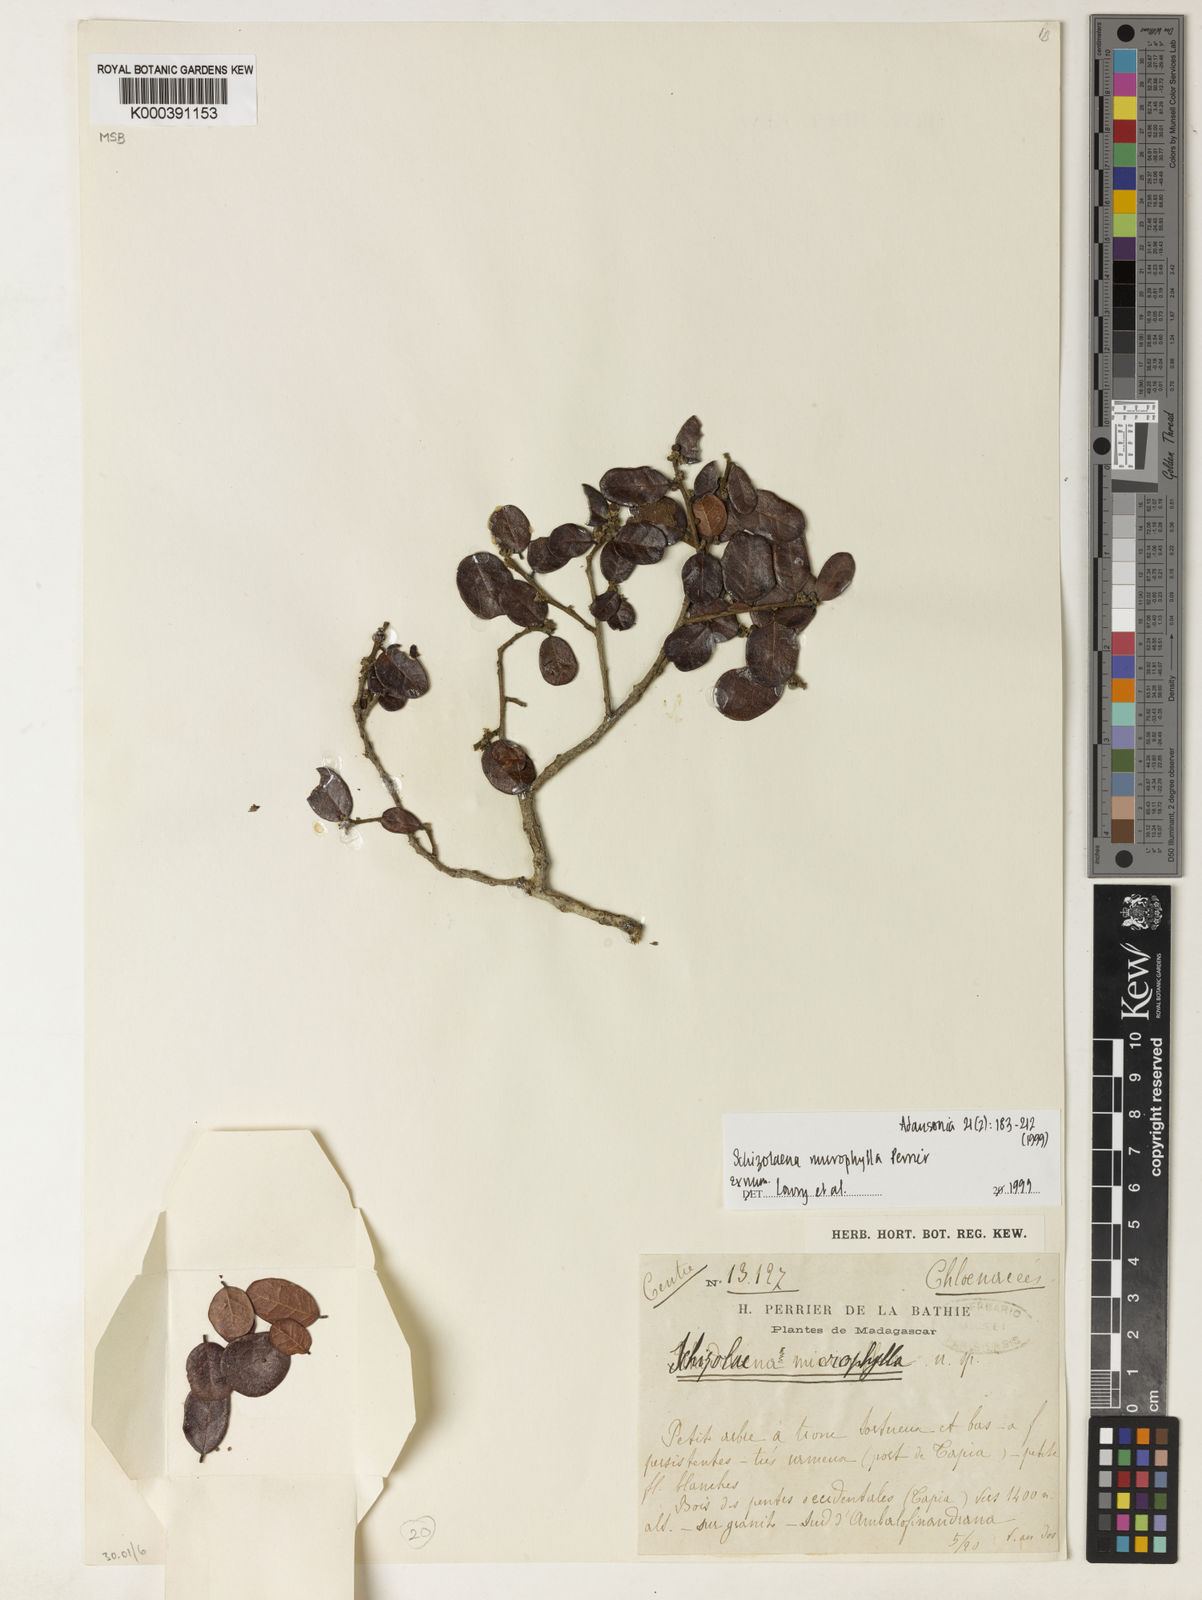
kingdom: Plantae
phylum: Tracheophyta
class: Magnoliopsida
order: Malvales
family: Sarcolaenaceae
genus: Schizolaena
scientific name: Schizolaena microphylla
